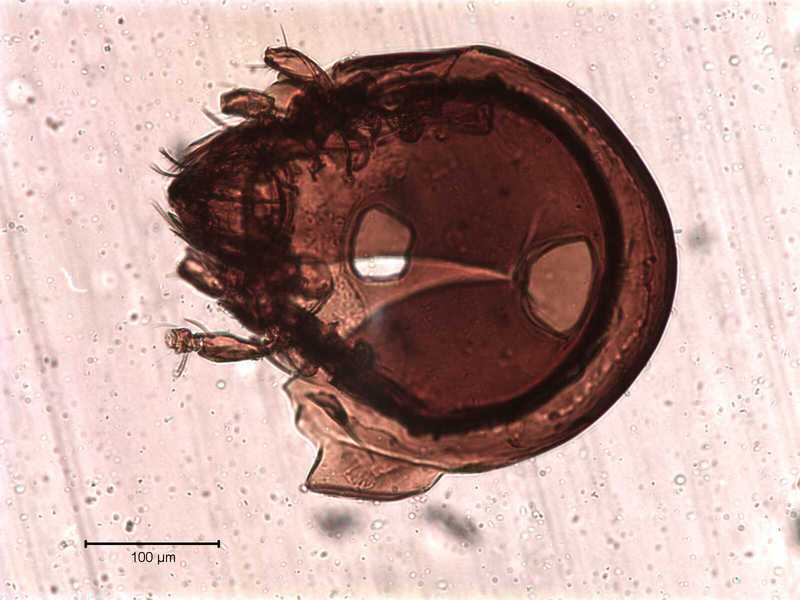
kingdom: Animalia
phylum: Arthropoda
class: Arachnida
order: Sarcoptiformes
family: Tegoribatidae
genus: Plakoribates
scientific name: Plakoribates multicuspidatus
